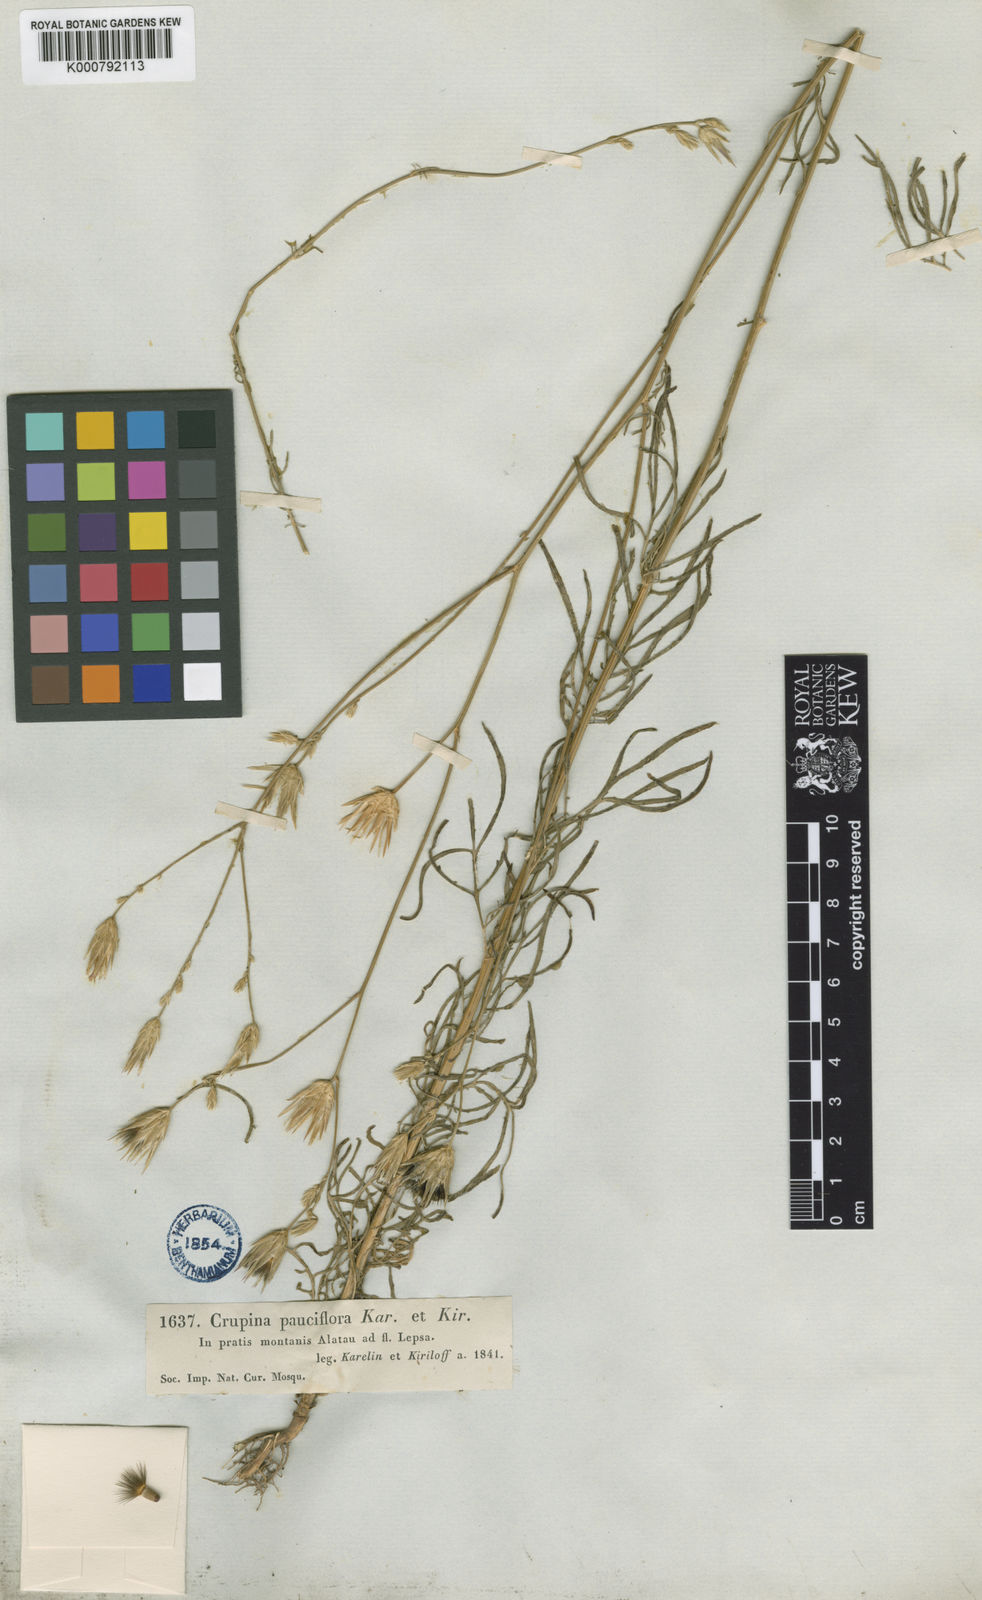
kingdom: Plantae
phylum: Tracheophyta
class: Magnoliopsida
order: Asterales
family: Asteraceae
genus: Crupina
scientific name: Crupina vulgaris
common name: Common crupina
